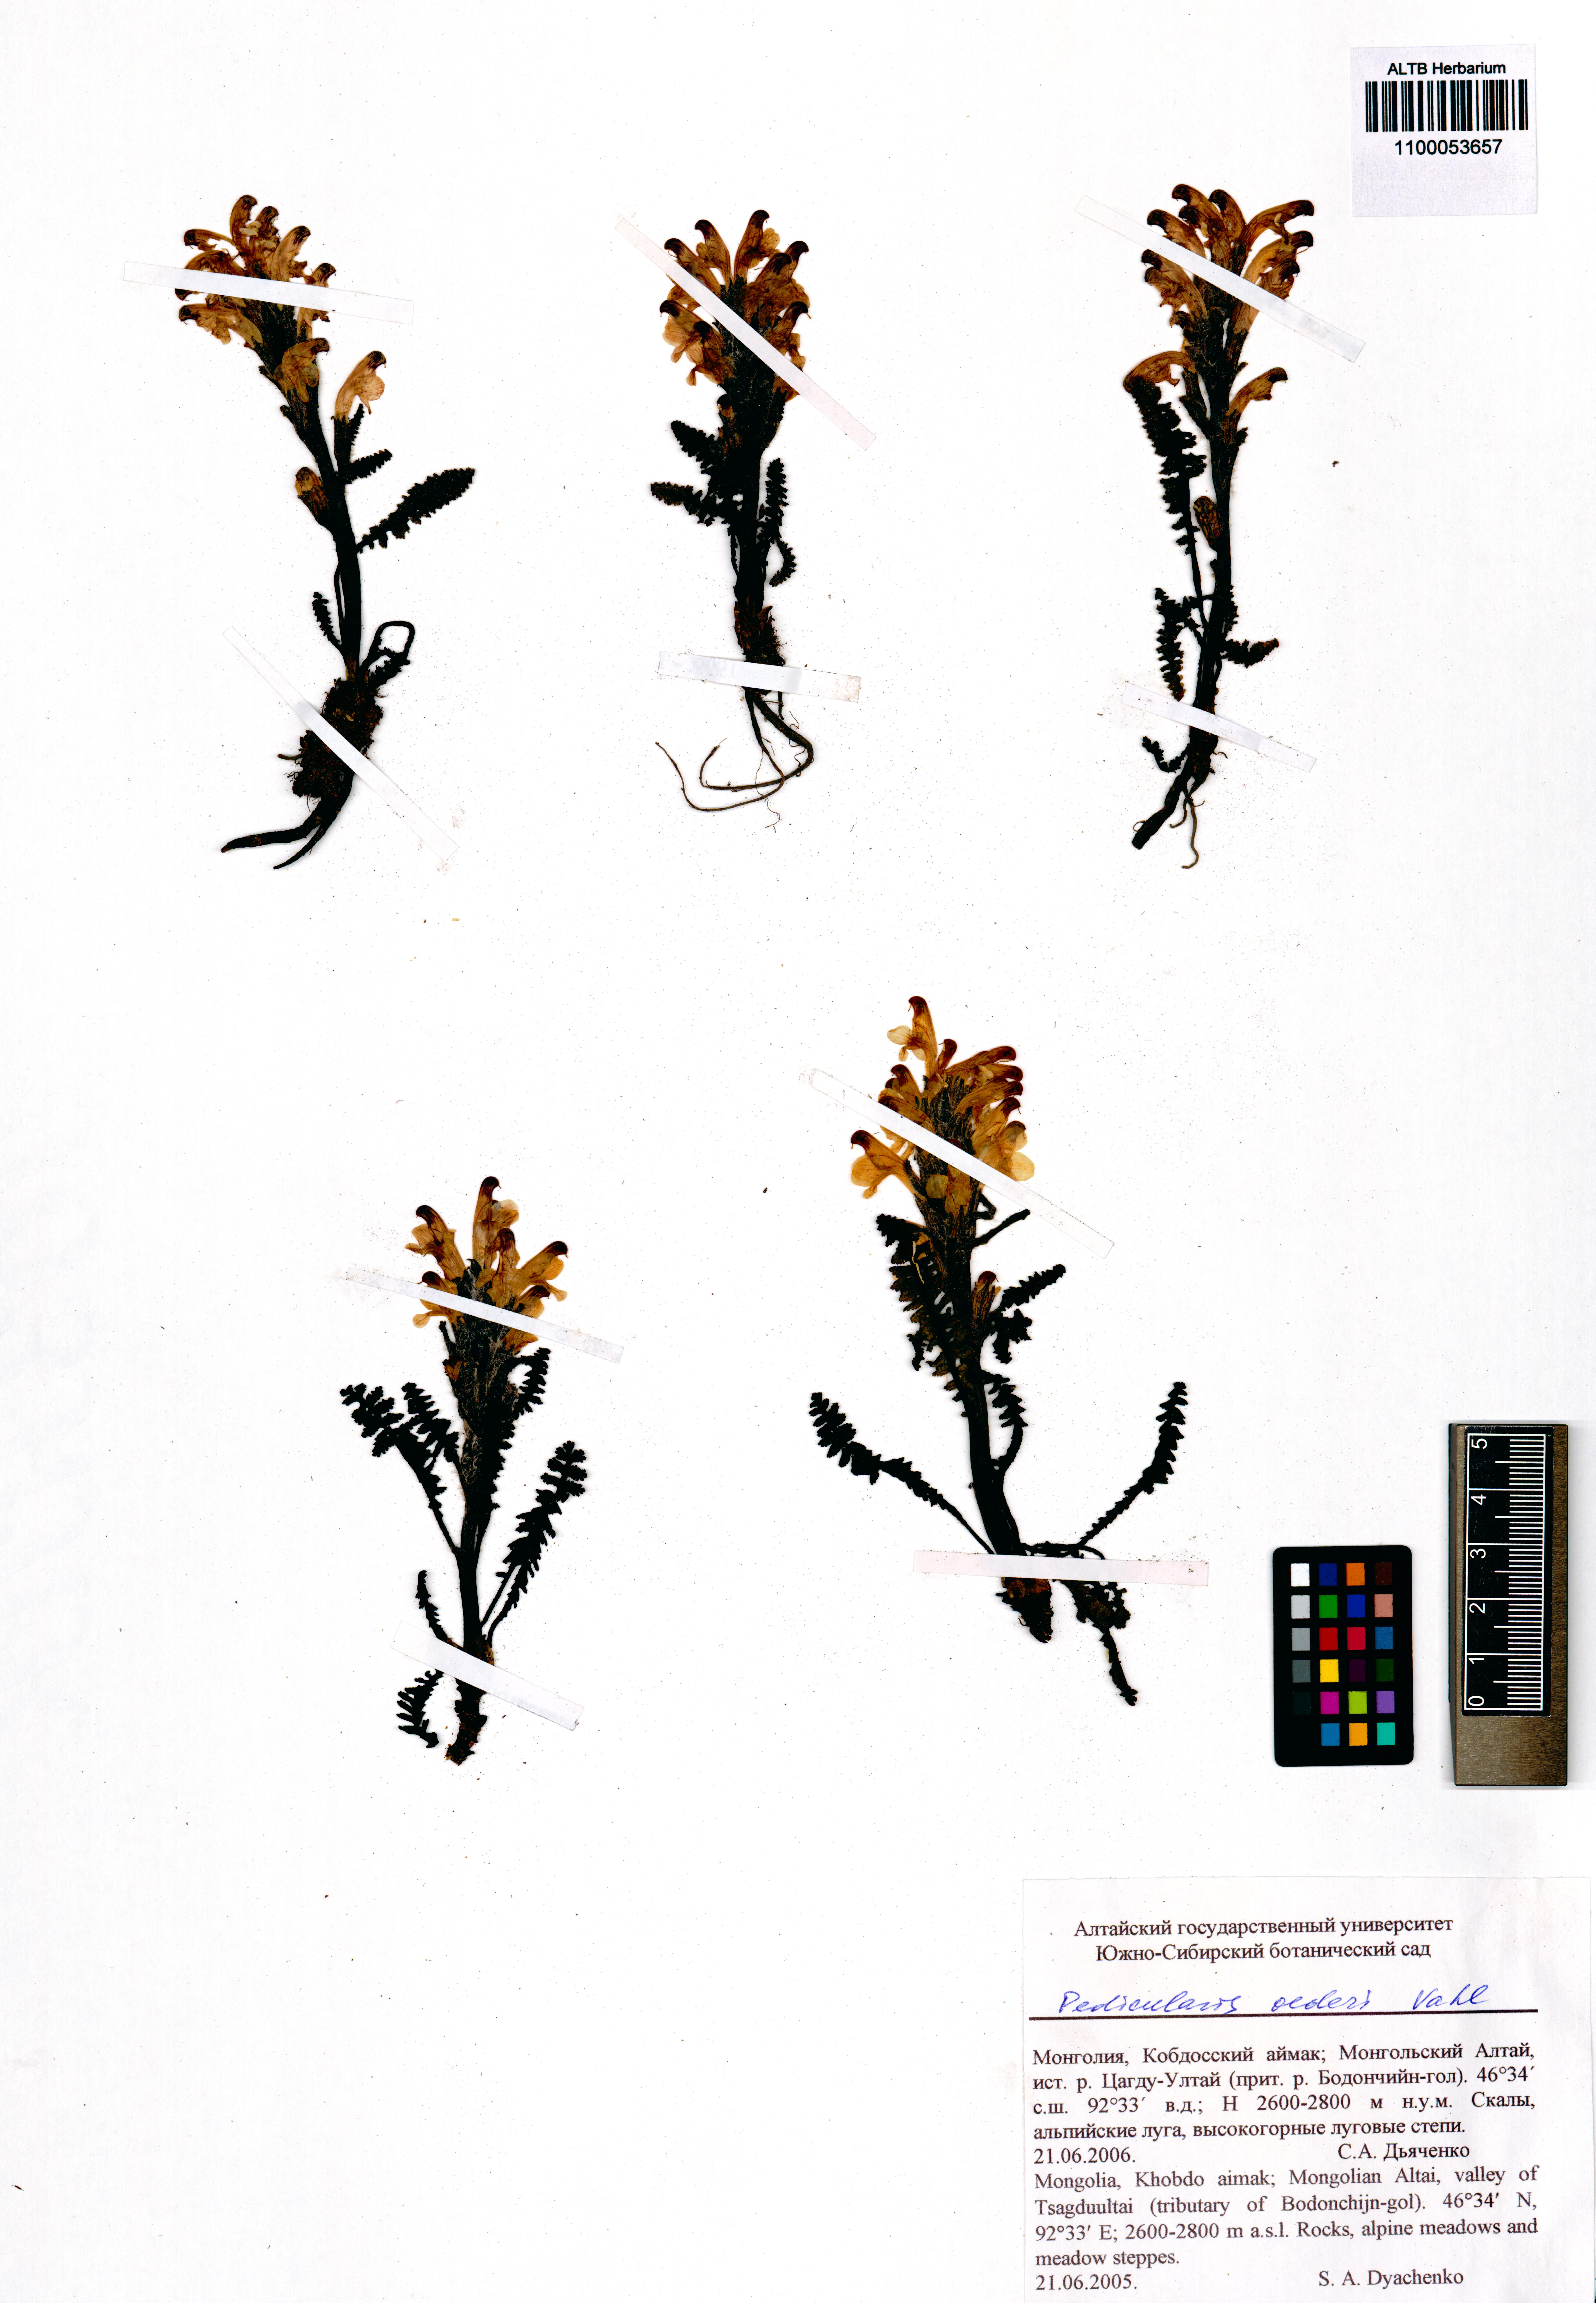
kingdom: Plantae
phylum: Tracheophyta
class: Magnoliopsida
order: Lamiales
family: Orobanchaceae
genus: Pedicularis
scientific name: Pedicularis oederi
